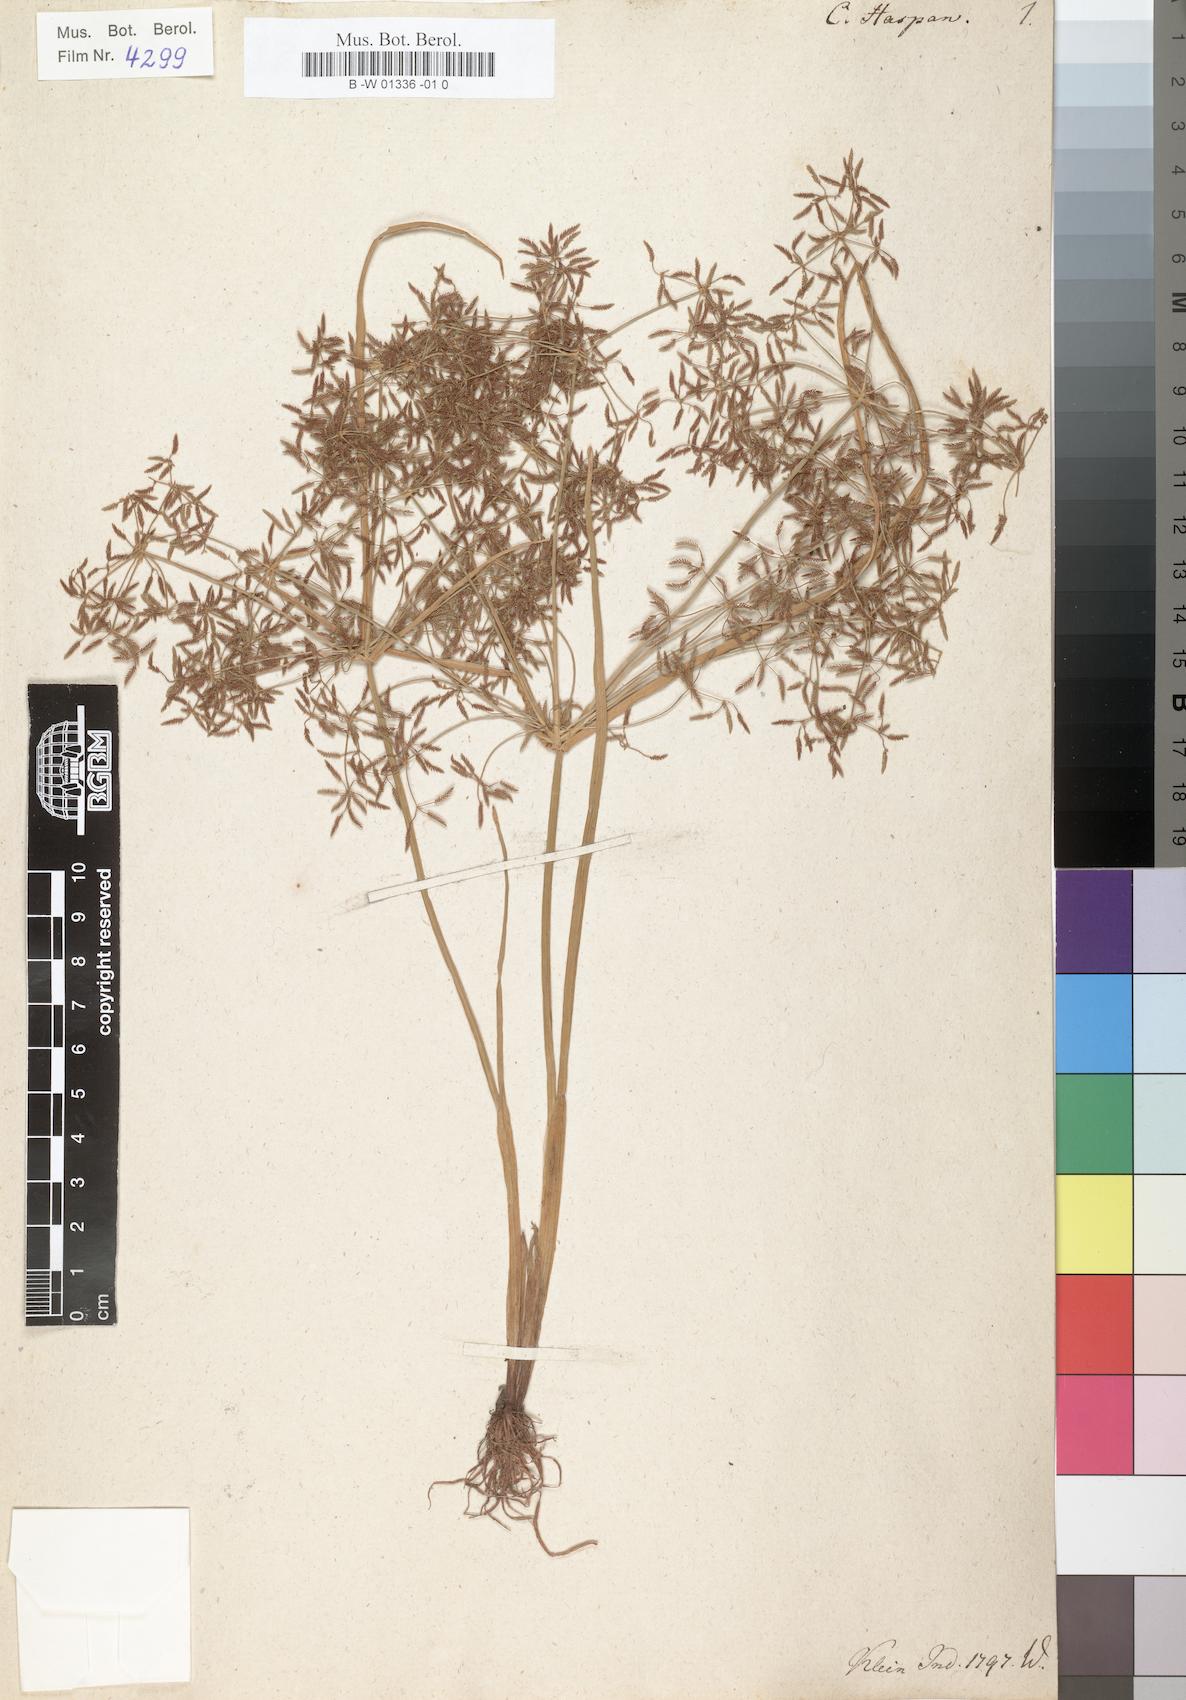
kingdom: Plantae
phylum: Tracheophyta
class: Liliopsida
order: Poales
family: Cyperaceae
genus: Cyperus
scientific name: Cyperus haspan
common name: Haspan flatsedge
